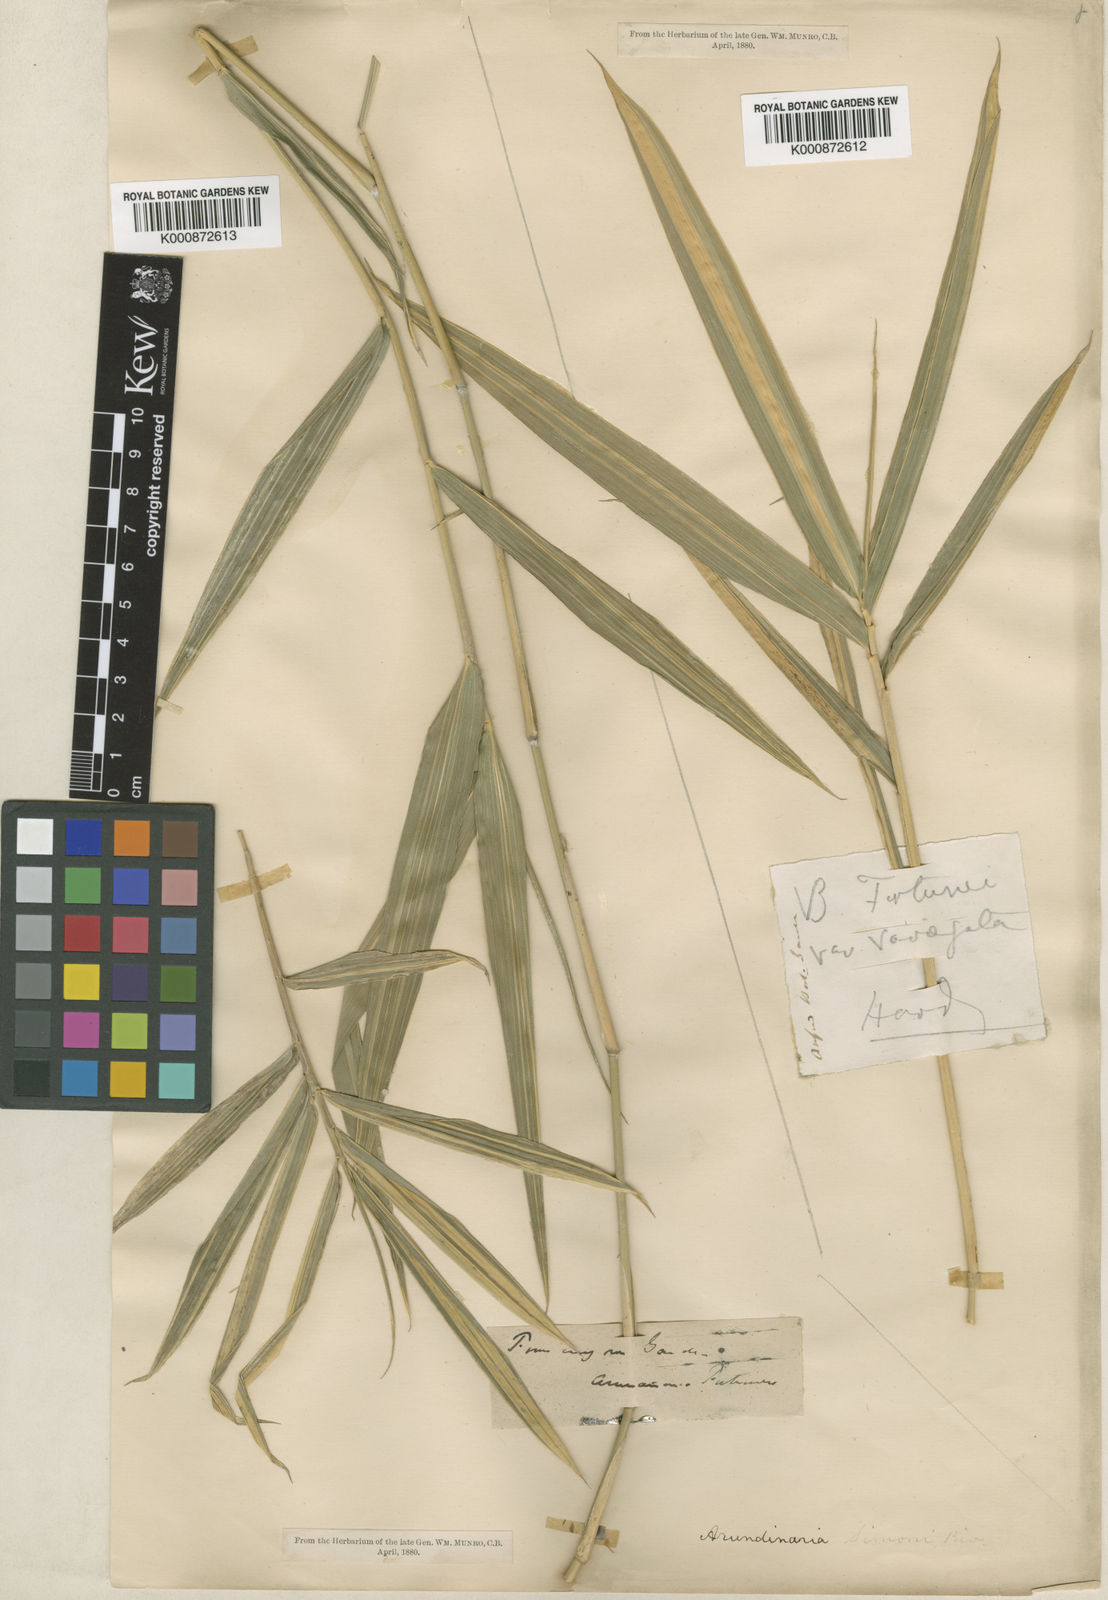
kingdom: Plantae
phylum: Tracheophyta
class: Liliopsida
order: Poales
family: Poaceae
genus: Arundinaria
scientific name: Arundinaria
